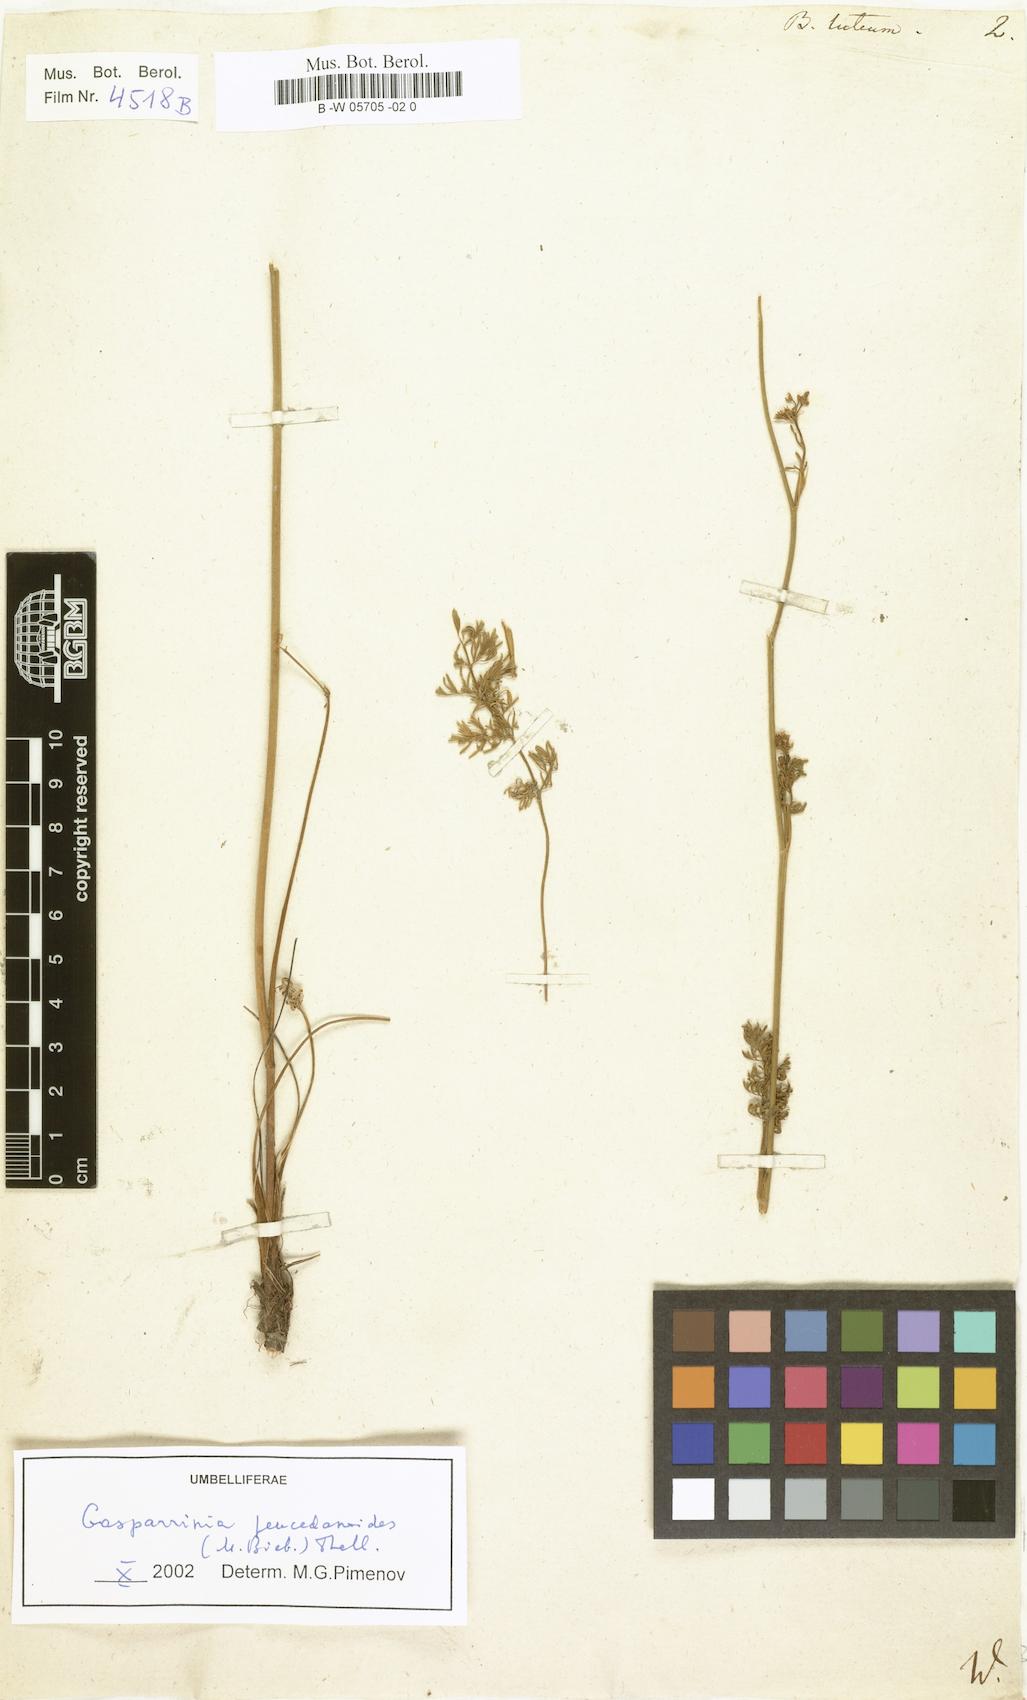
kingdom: Plantae
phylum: Tracheophyta
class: Magnoliopsida
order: Apiales
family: Apiaceae
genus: Elaeosticta
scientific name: Elaeosticta lutea
